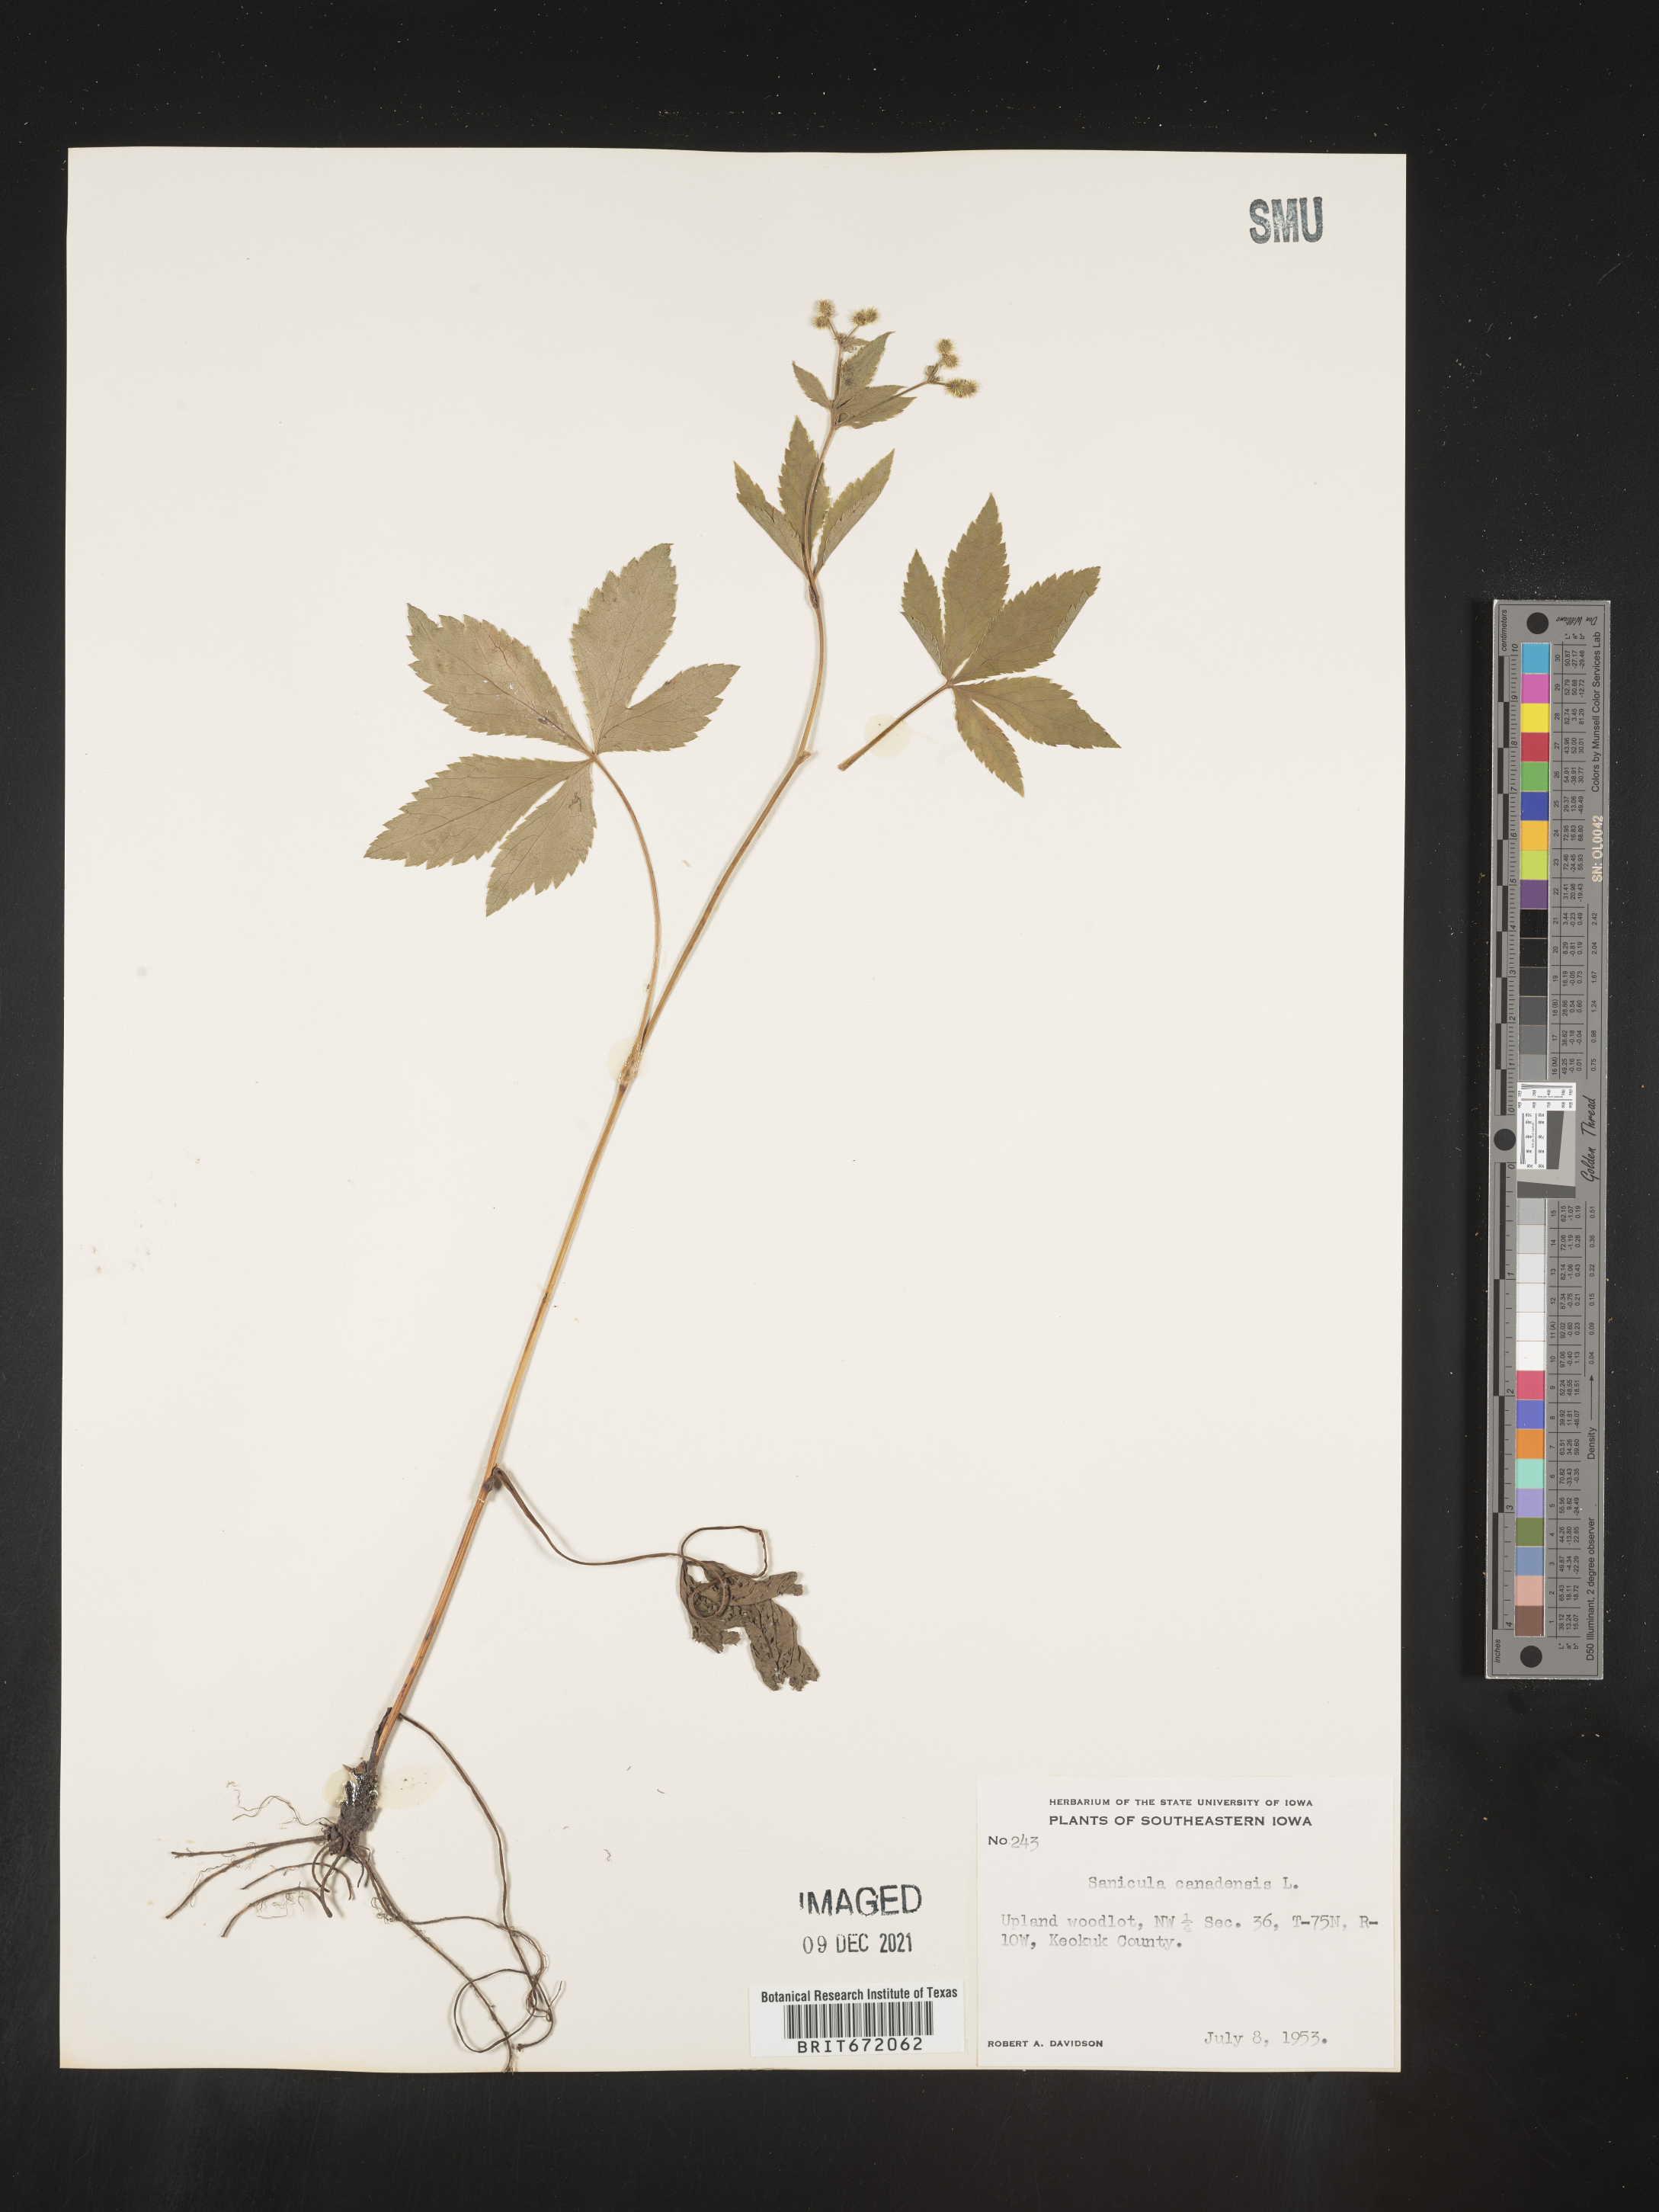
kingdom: Plantae
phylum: Tracheophyta
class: Magnoliopsida
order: Apiales
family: Apiaceae
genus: Sanicula
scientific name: Sanicula canadensis
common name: Canada sanicle
